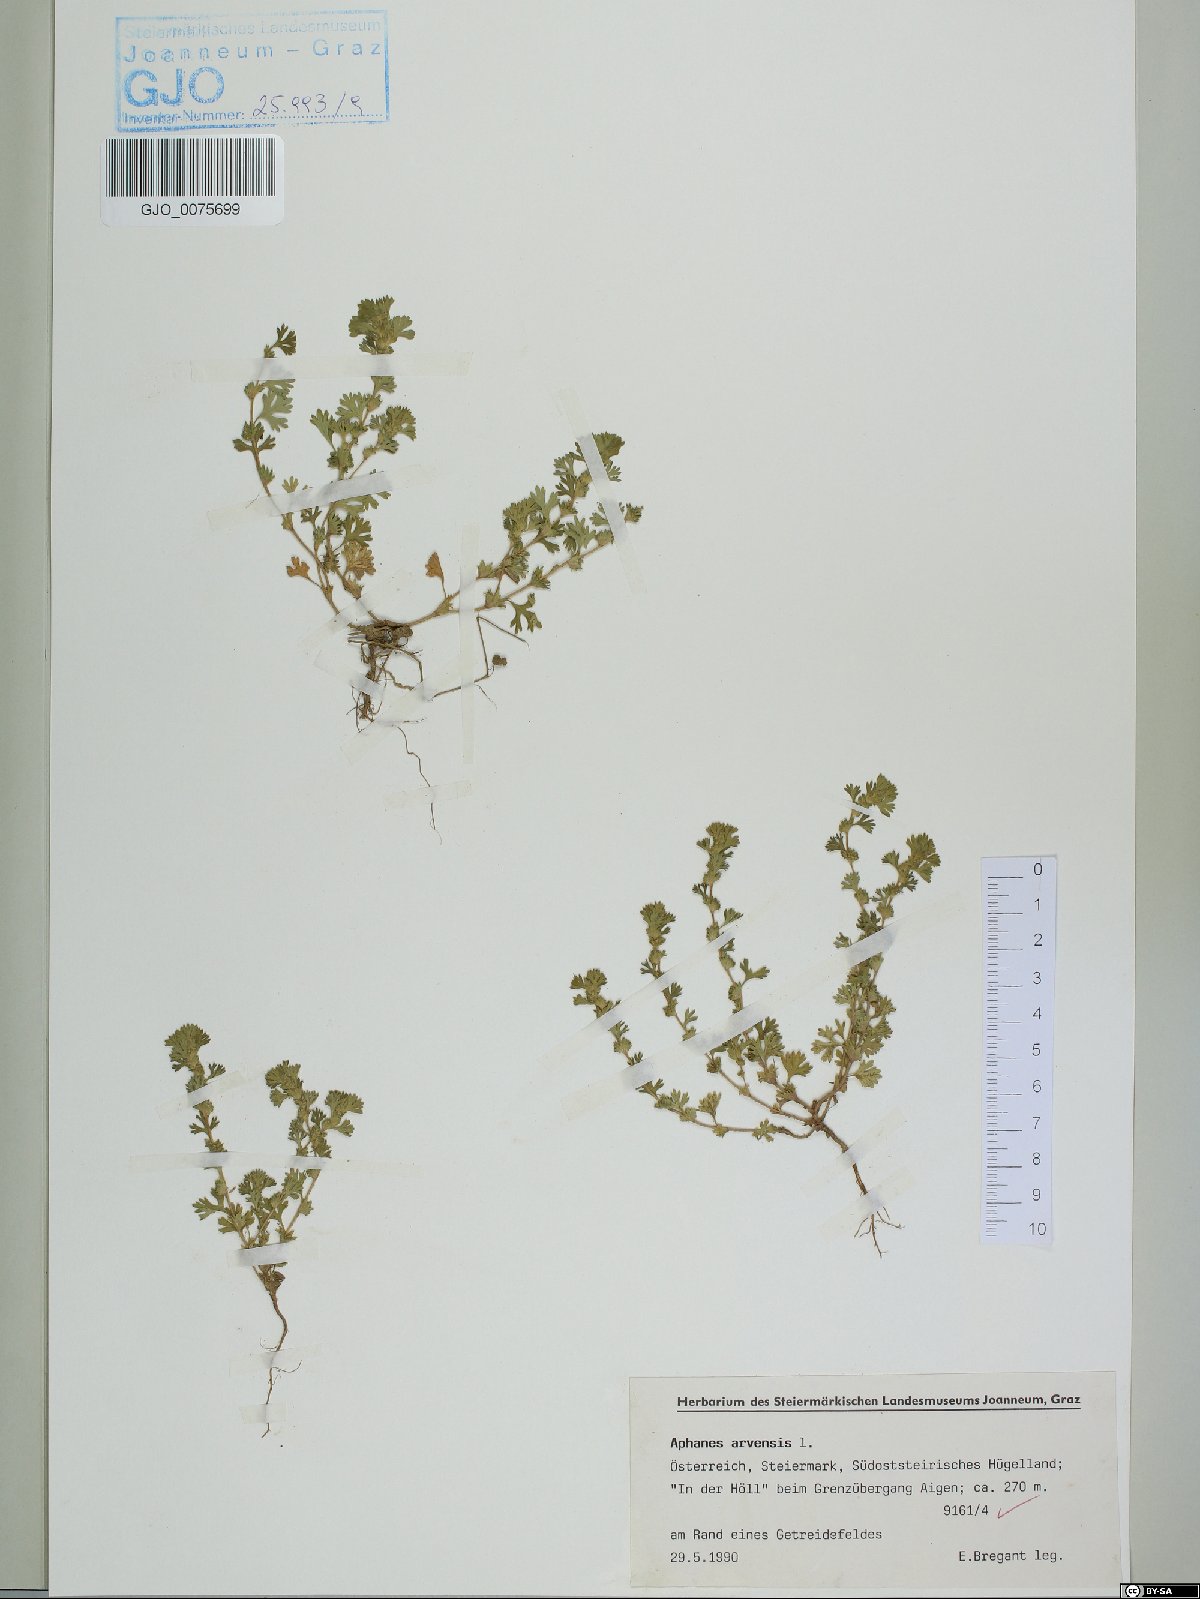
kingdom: Plantae
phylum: Tracheophyta
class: Magnoliopsida
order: Rosales
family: Rosaceae
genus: Aphanes
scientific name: Aphanes arvensis
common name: Parsley-piert
